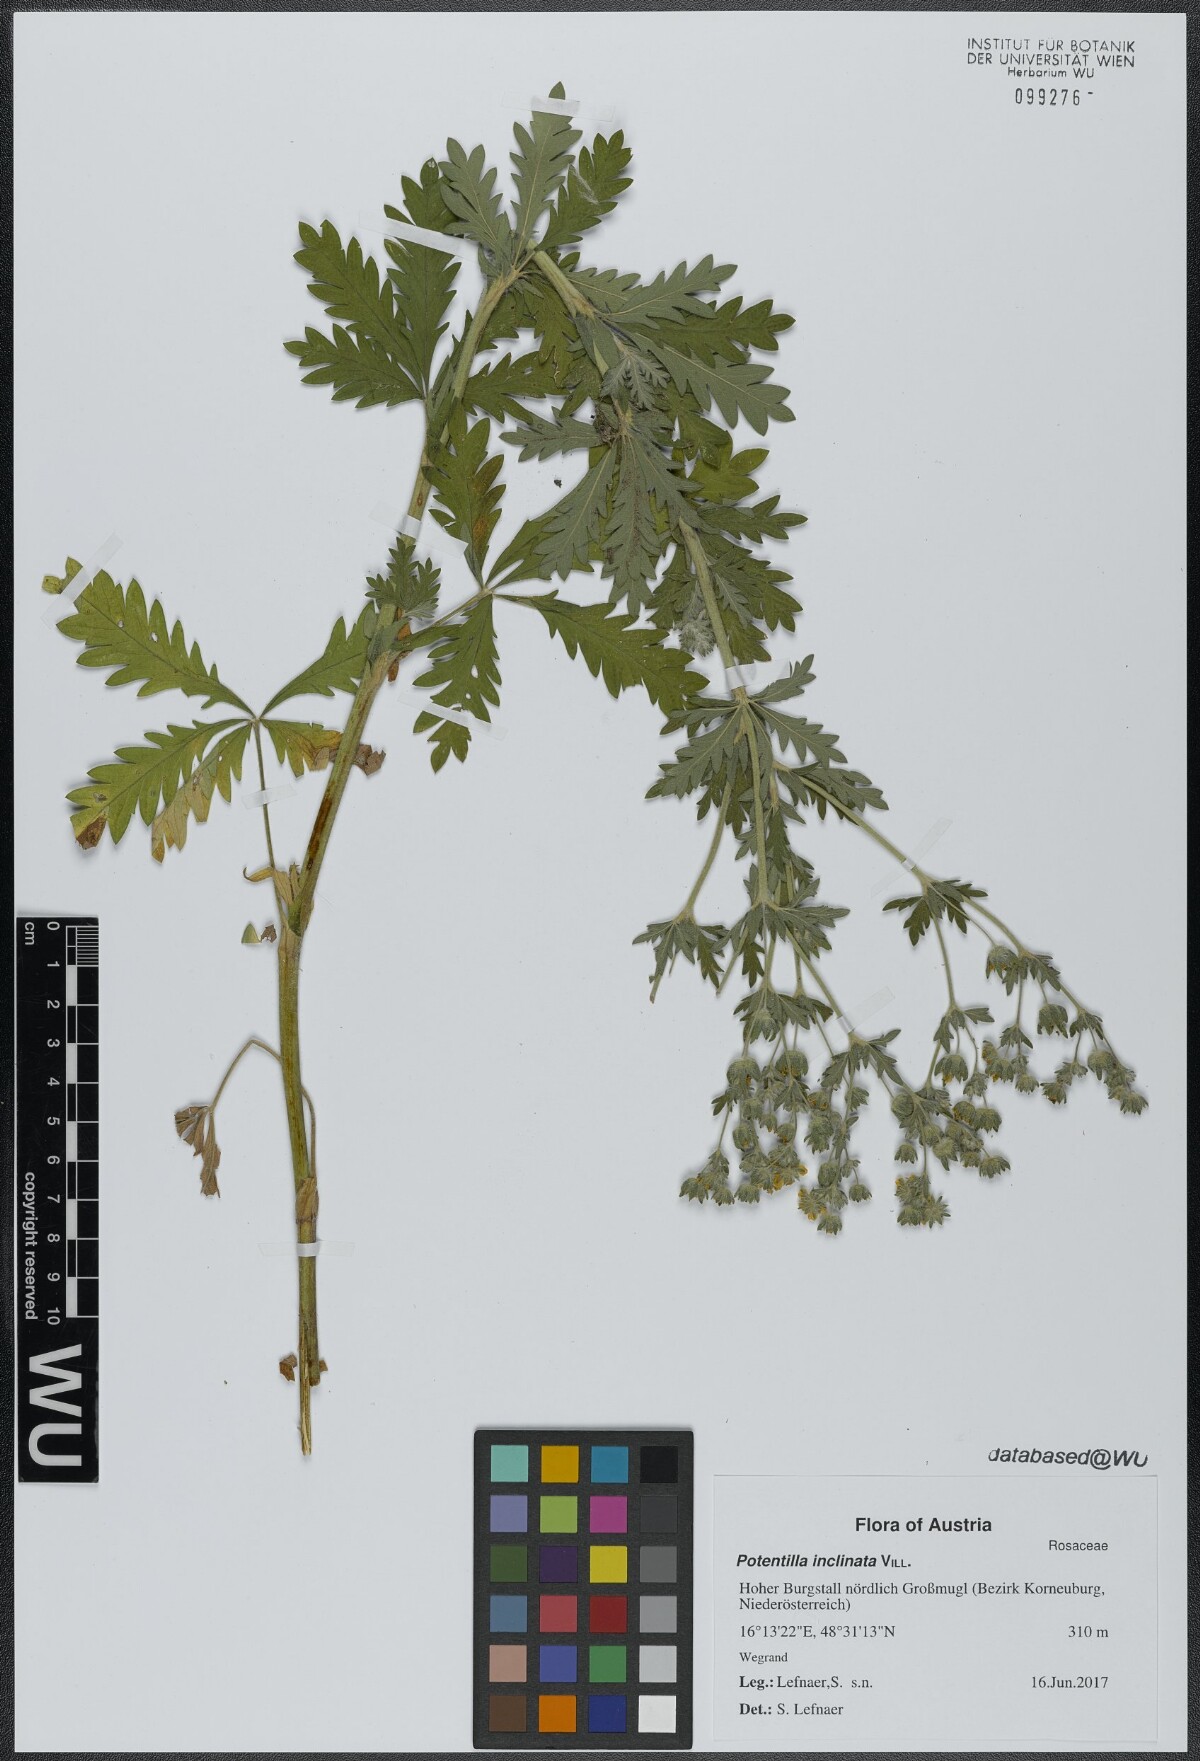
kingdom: Plantae
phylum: Tracheophyta
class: Magnoliopsida
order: Rosales
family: Rosaceae
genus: Potentilla
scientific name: Potentilla inclinata
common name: Grey cinquefoil
